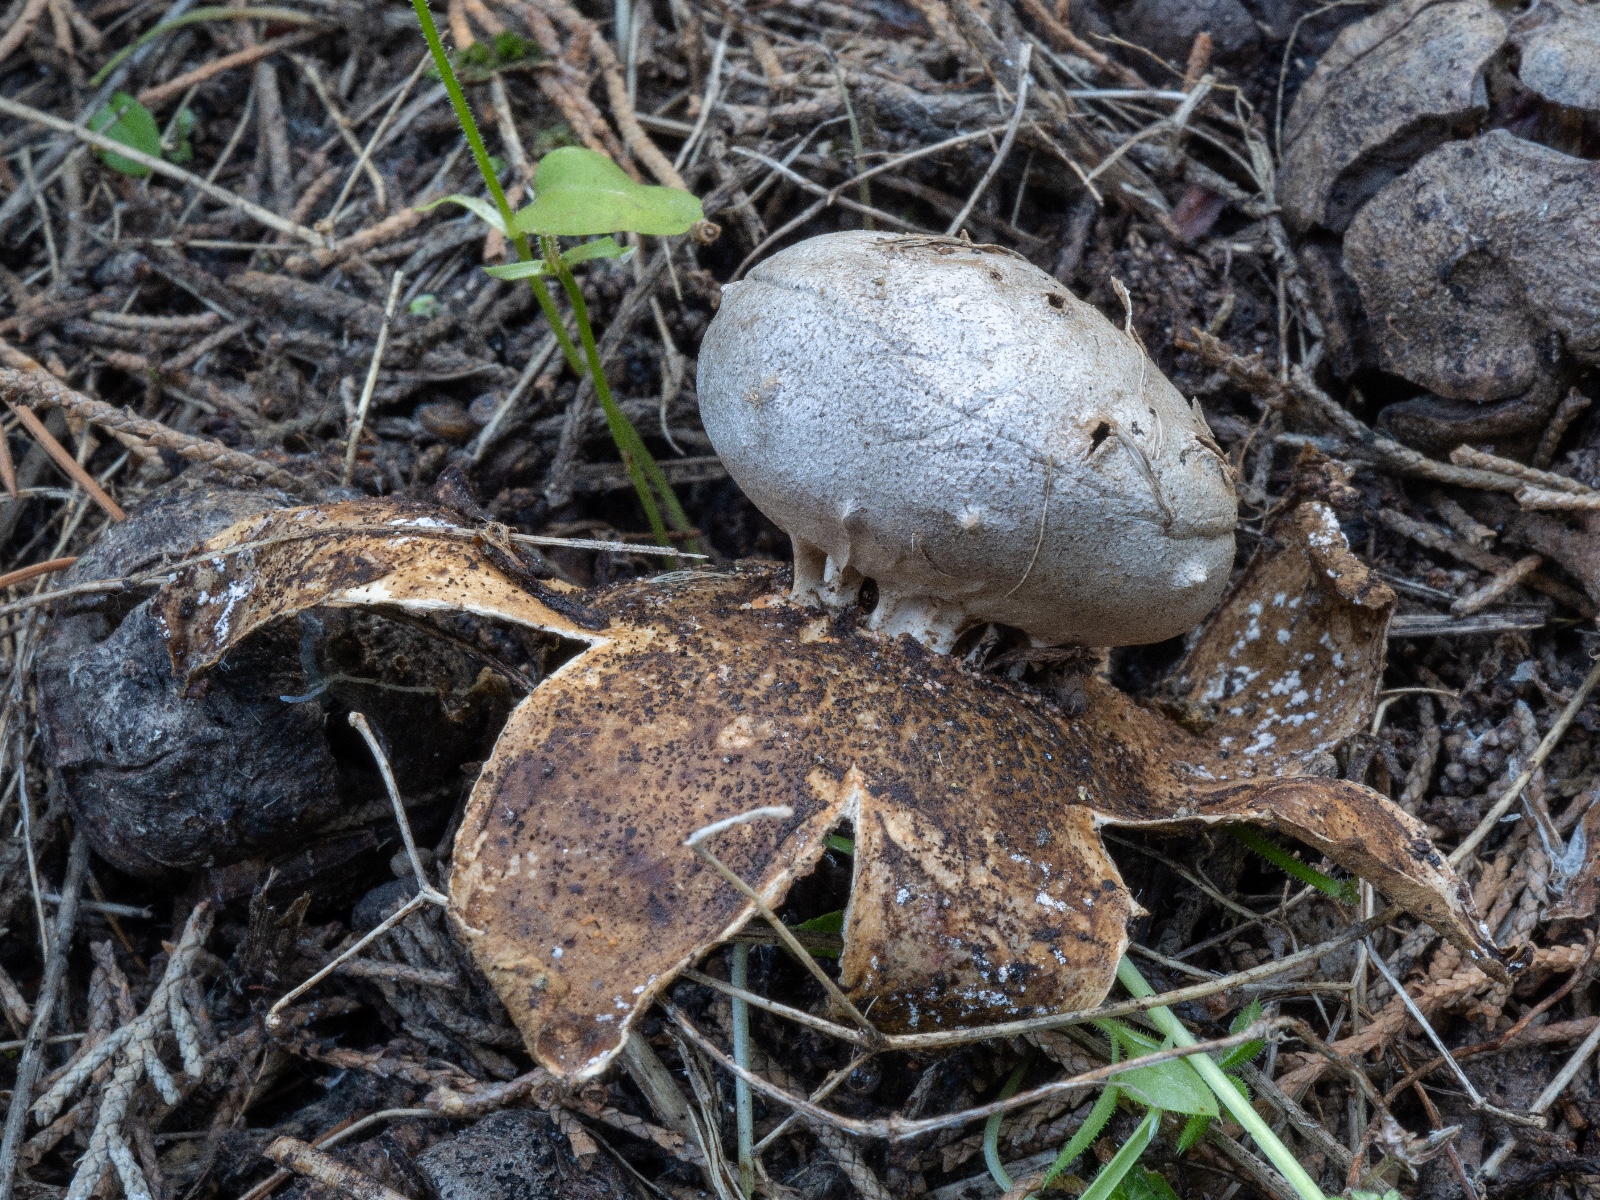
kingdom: Fungi
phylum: Basidiomycota
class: Agaricomycetes
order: Geastrales
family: Geastraceae
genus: Myriostoma
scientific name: Myriostoma coliforme
